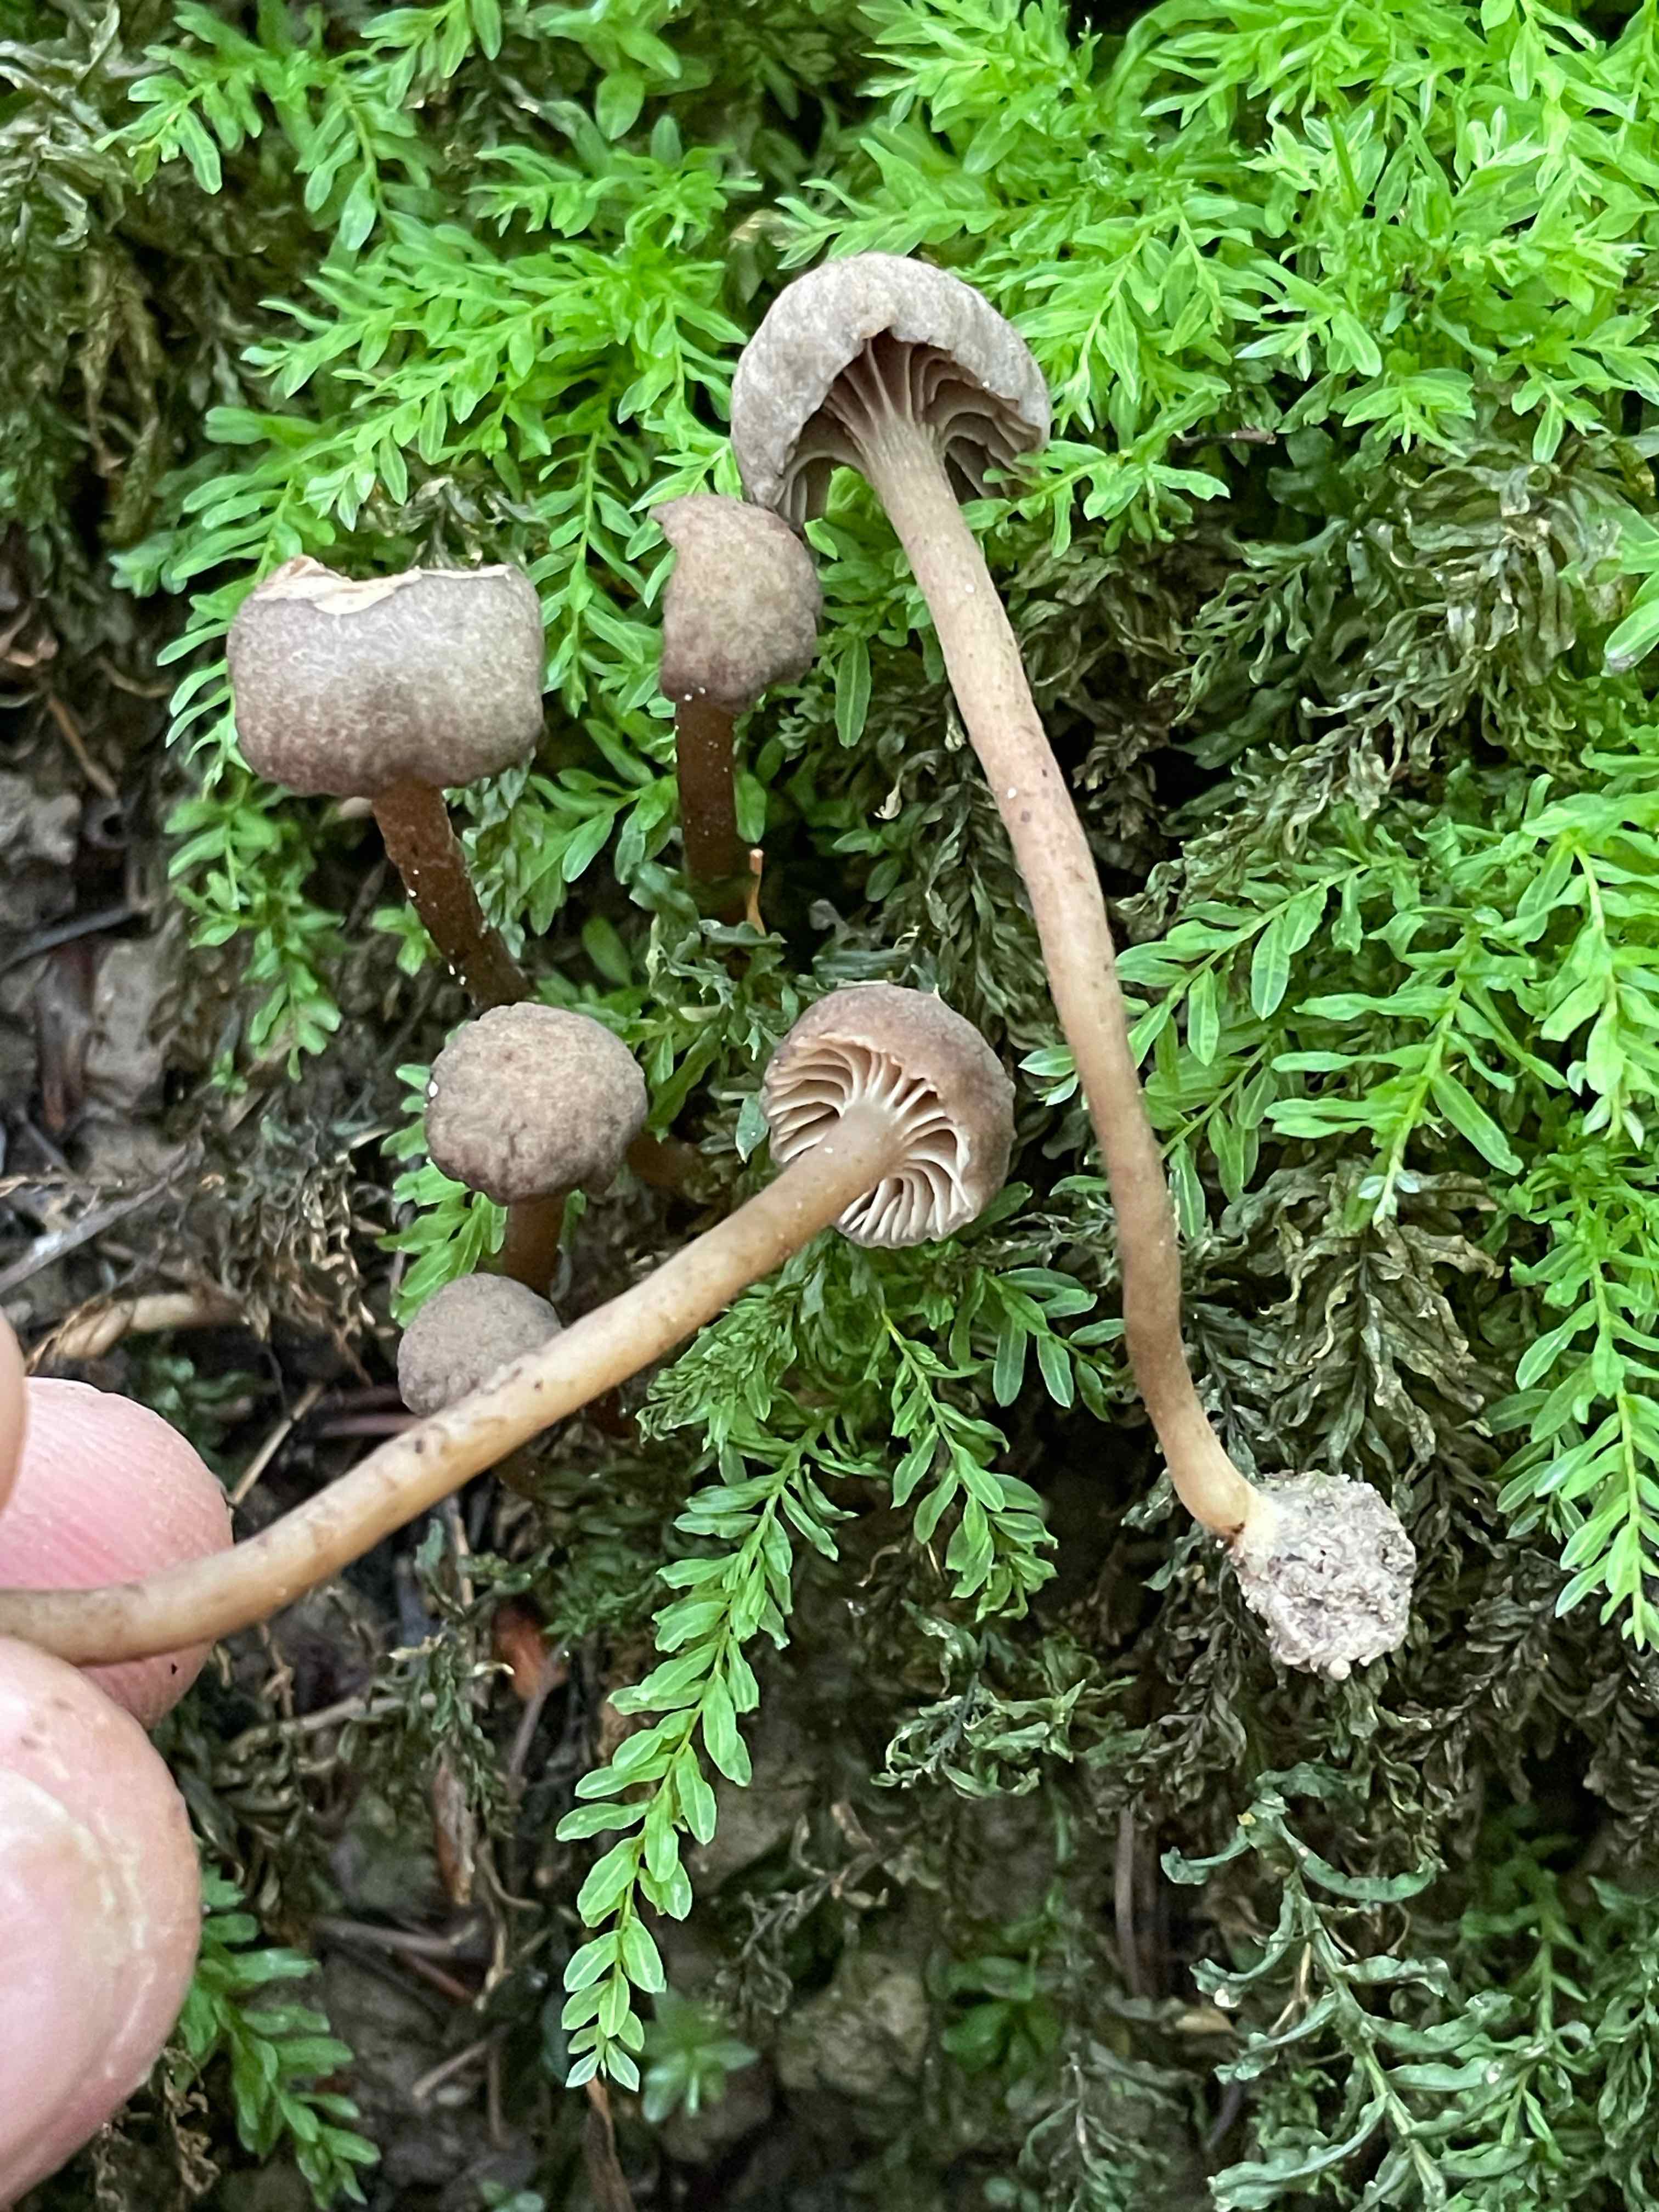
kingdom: Fungi
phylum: Basidiomycota
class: Agaricomycetes
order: Agaricales
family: Clavariaceae
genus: Hodophilus
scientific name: Hodophilus
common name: kratvokshat
